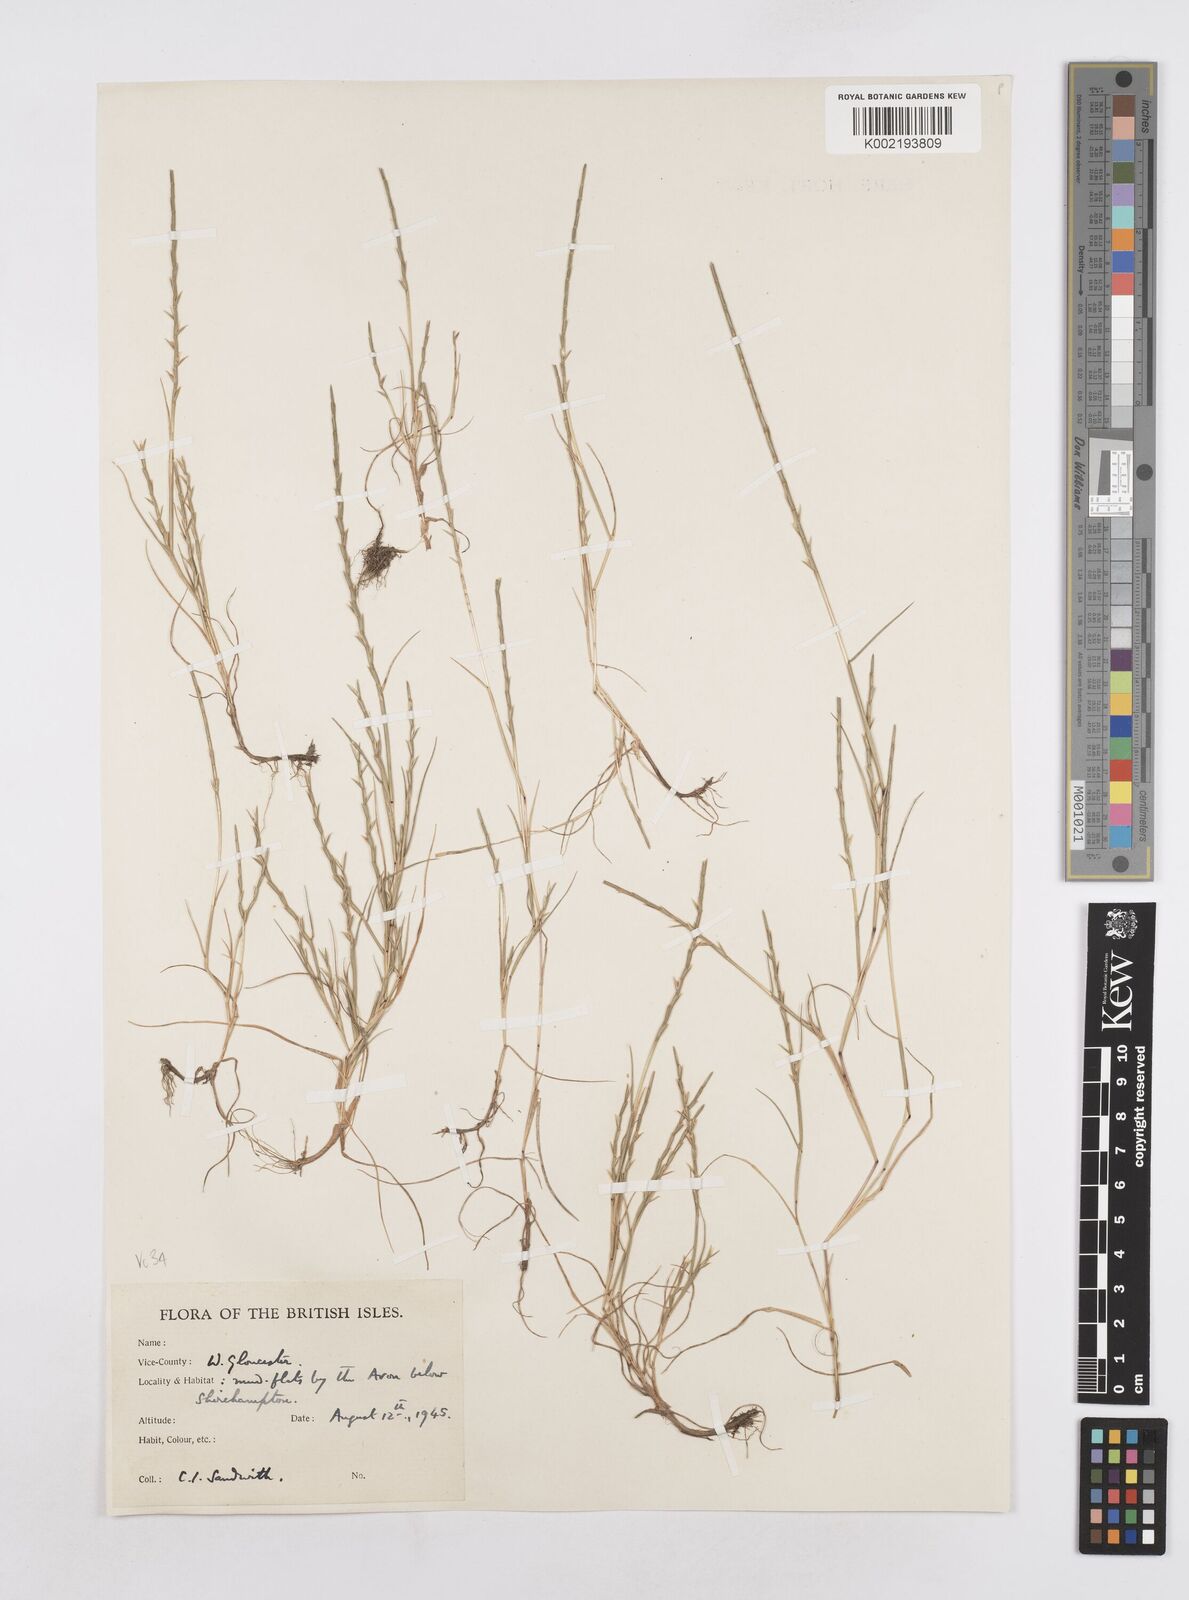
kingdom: Plantae
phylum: Tracheophyta
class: Liliopsida
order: Poales
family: Poaceae
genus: Parapholis
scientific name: Parapholis strigosa
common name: Hard-grass
